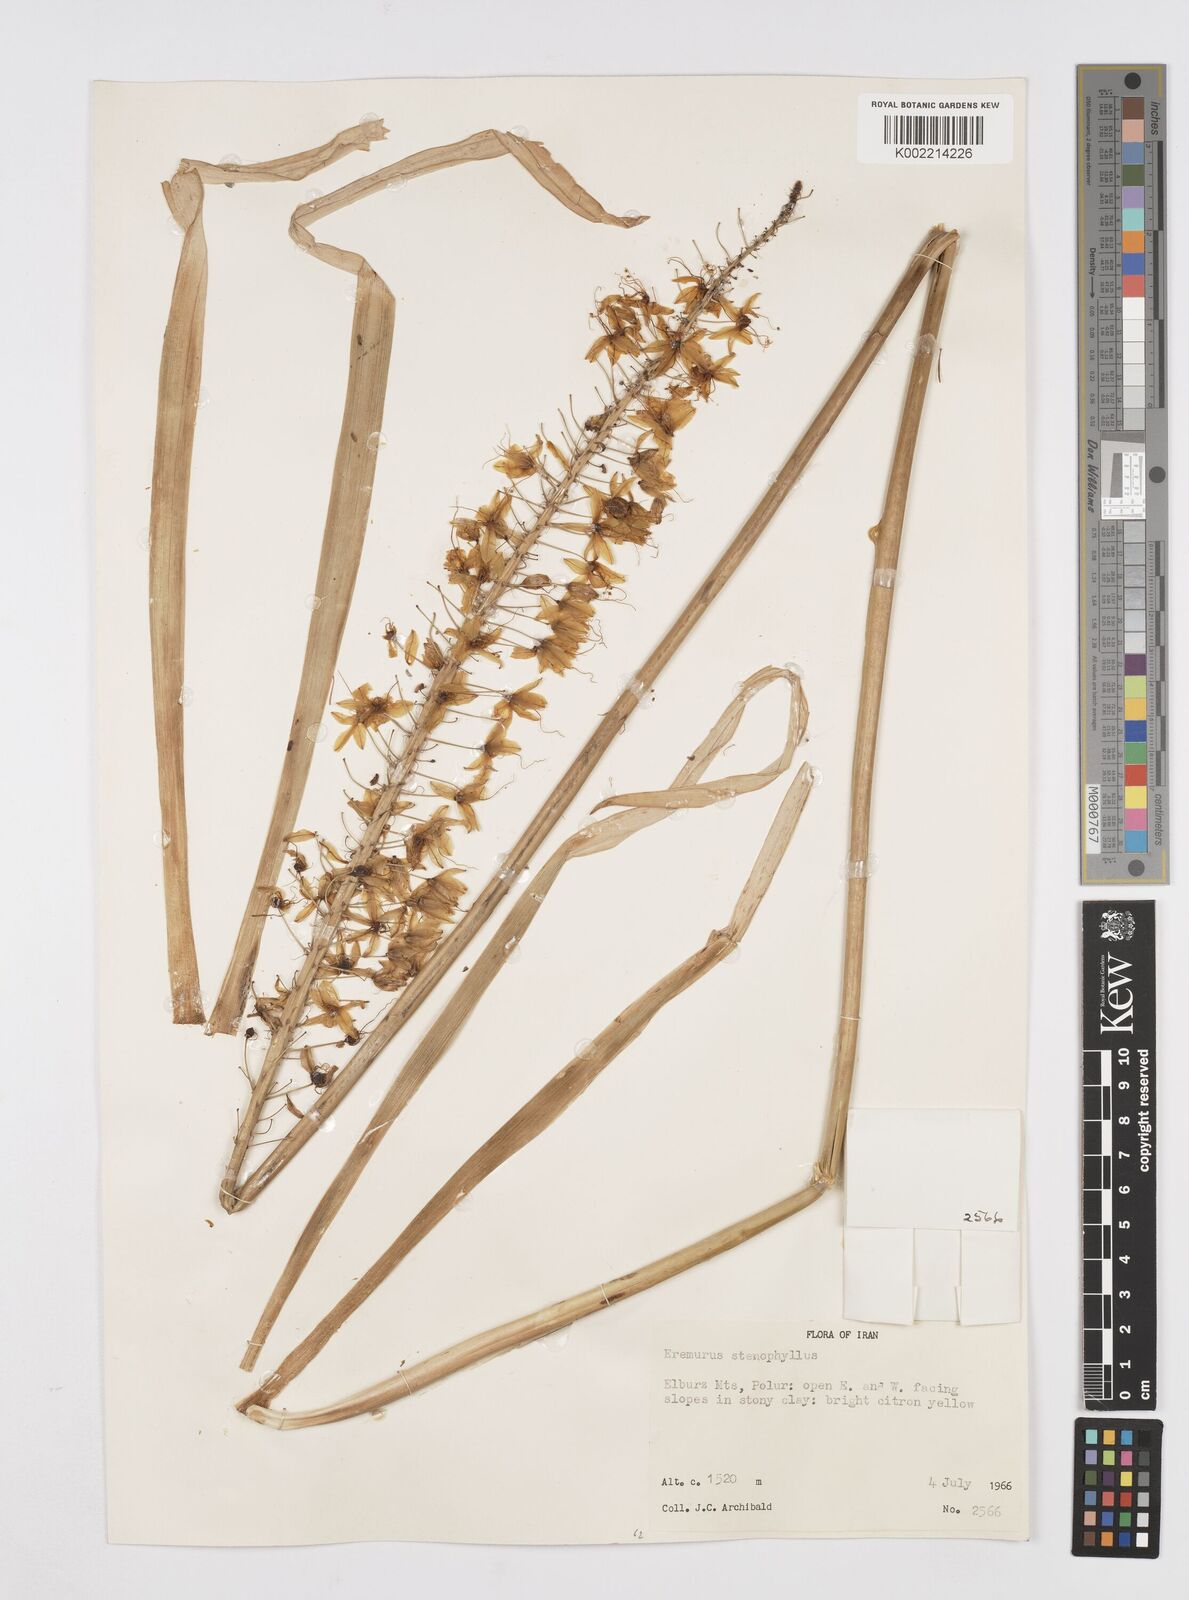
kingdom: Plantae
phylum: Tracheophyta
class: Liliopsida
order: Asparagales
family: Asphodelaceae
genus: Eremurus
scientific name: Eremurus stenophyllus
